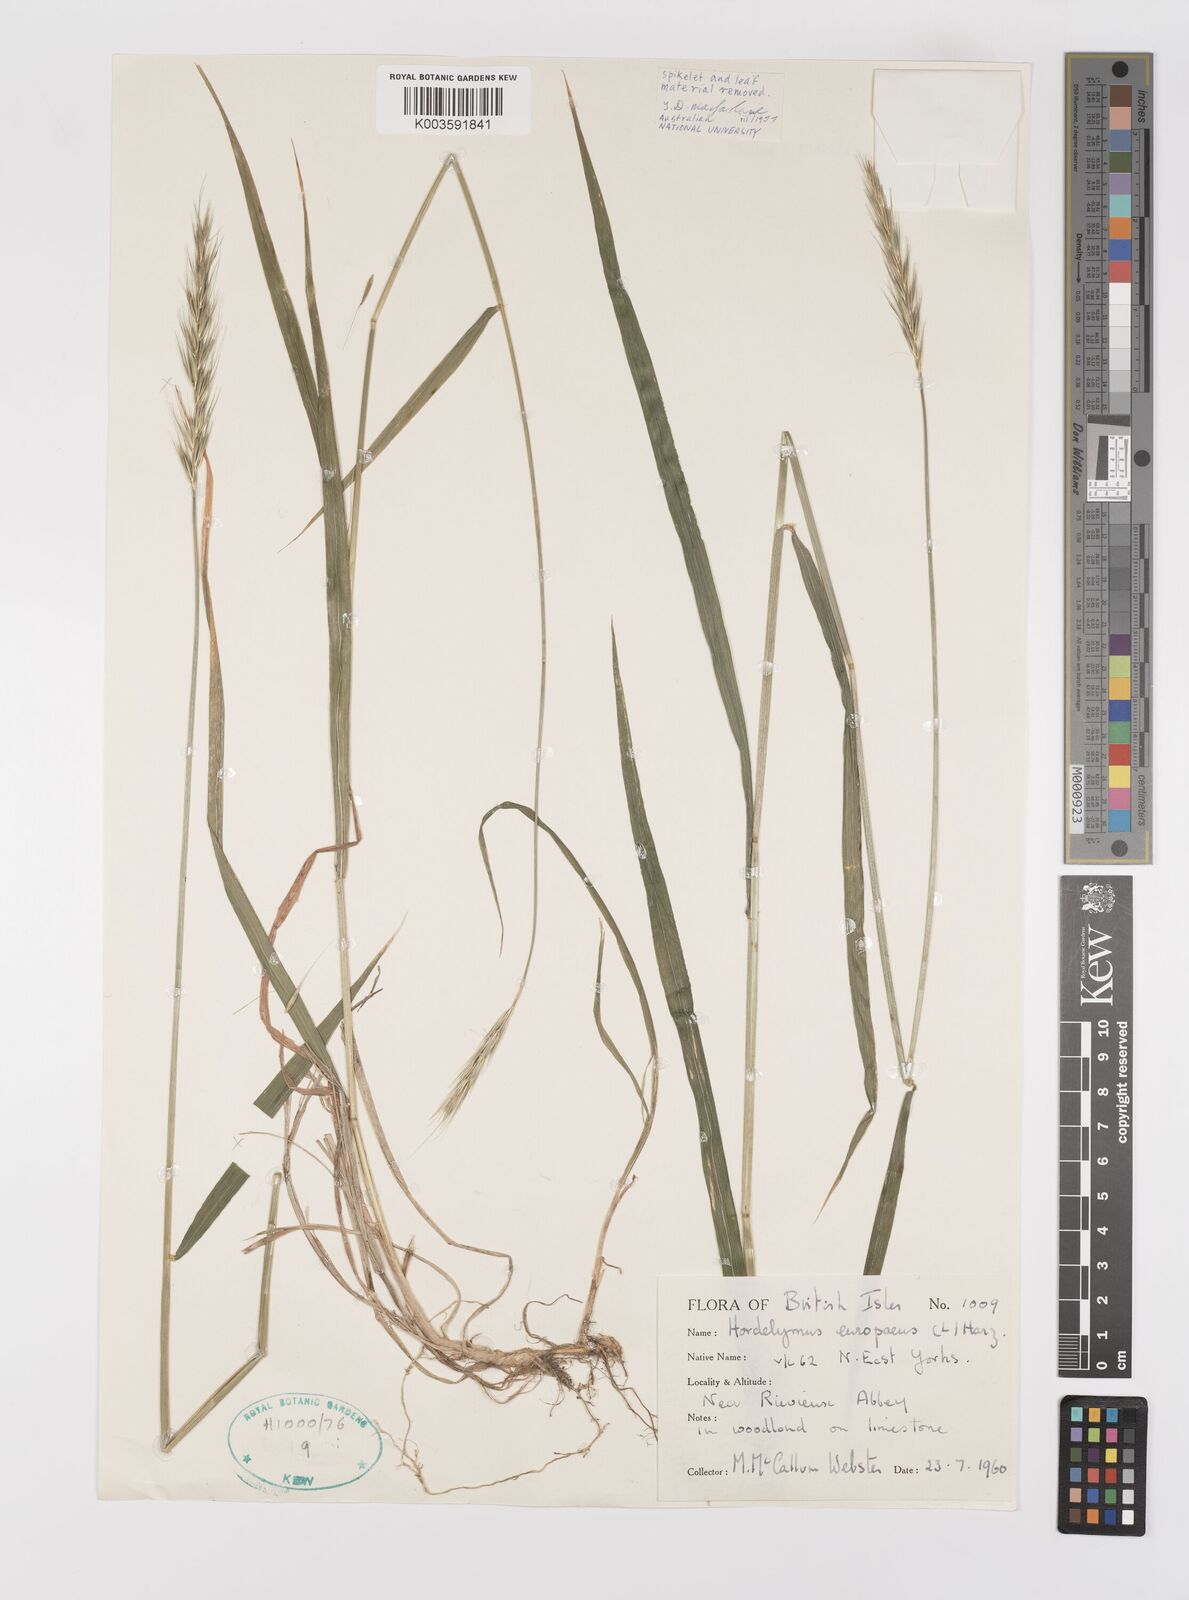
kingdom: Plantae
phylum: Tracheophyta
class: Liliopsida
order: Poales
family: Poaceae
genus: Hordelymus
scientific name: Hordelymus europaeus
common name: Wood-barley
